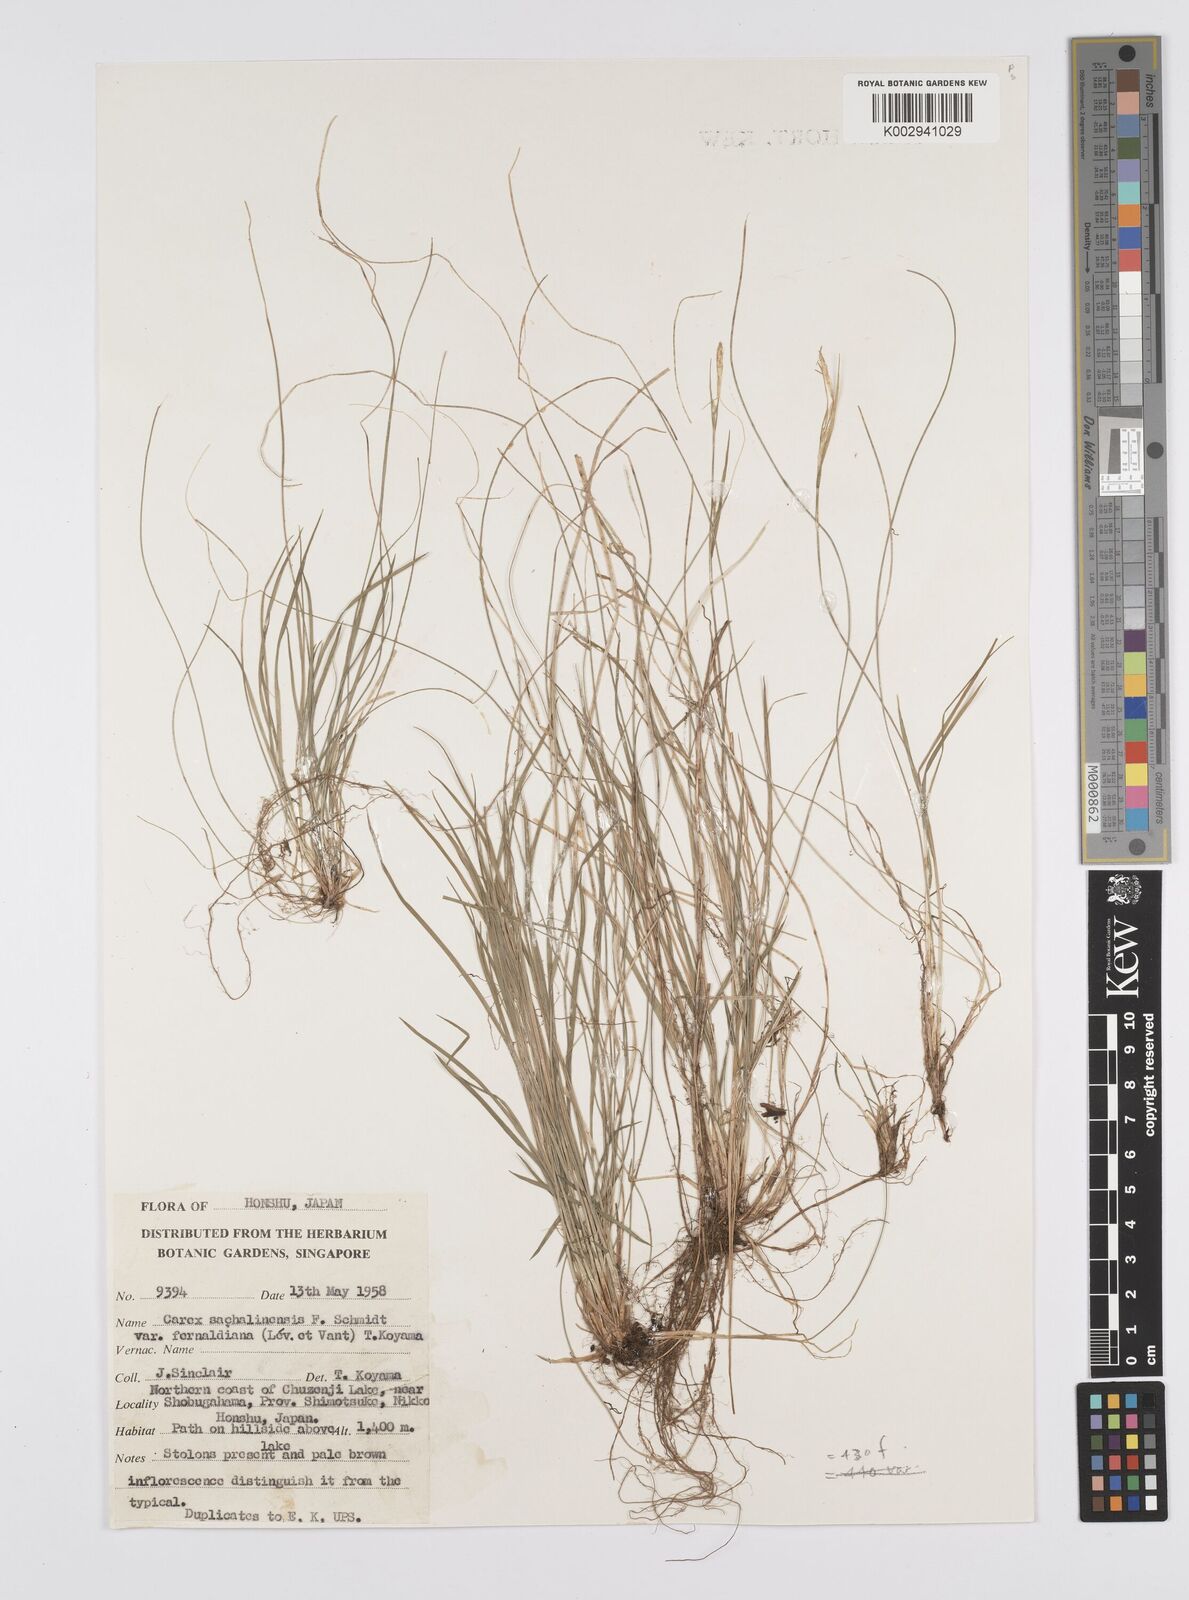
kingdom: Plantae
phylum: Tracheophyta
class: Liliopsida
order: Poales
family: Cyperaceae
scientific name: Cyperaceae
